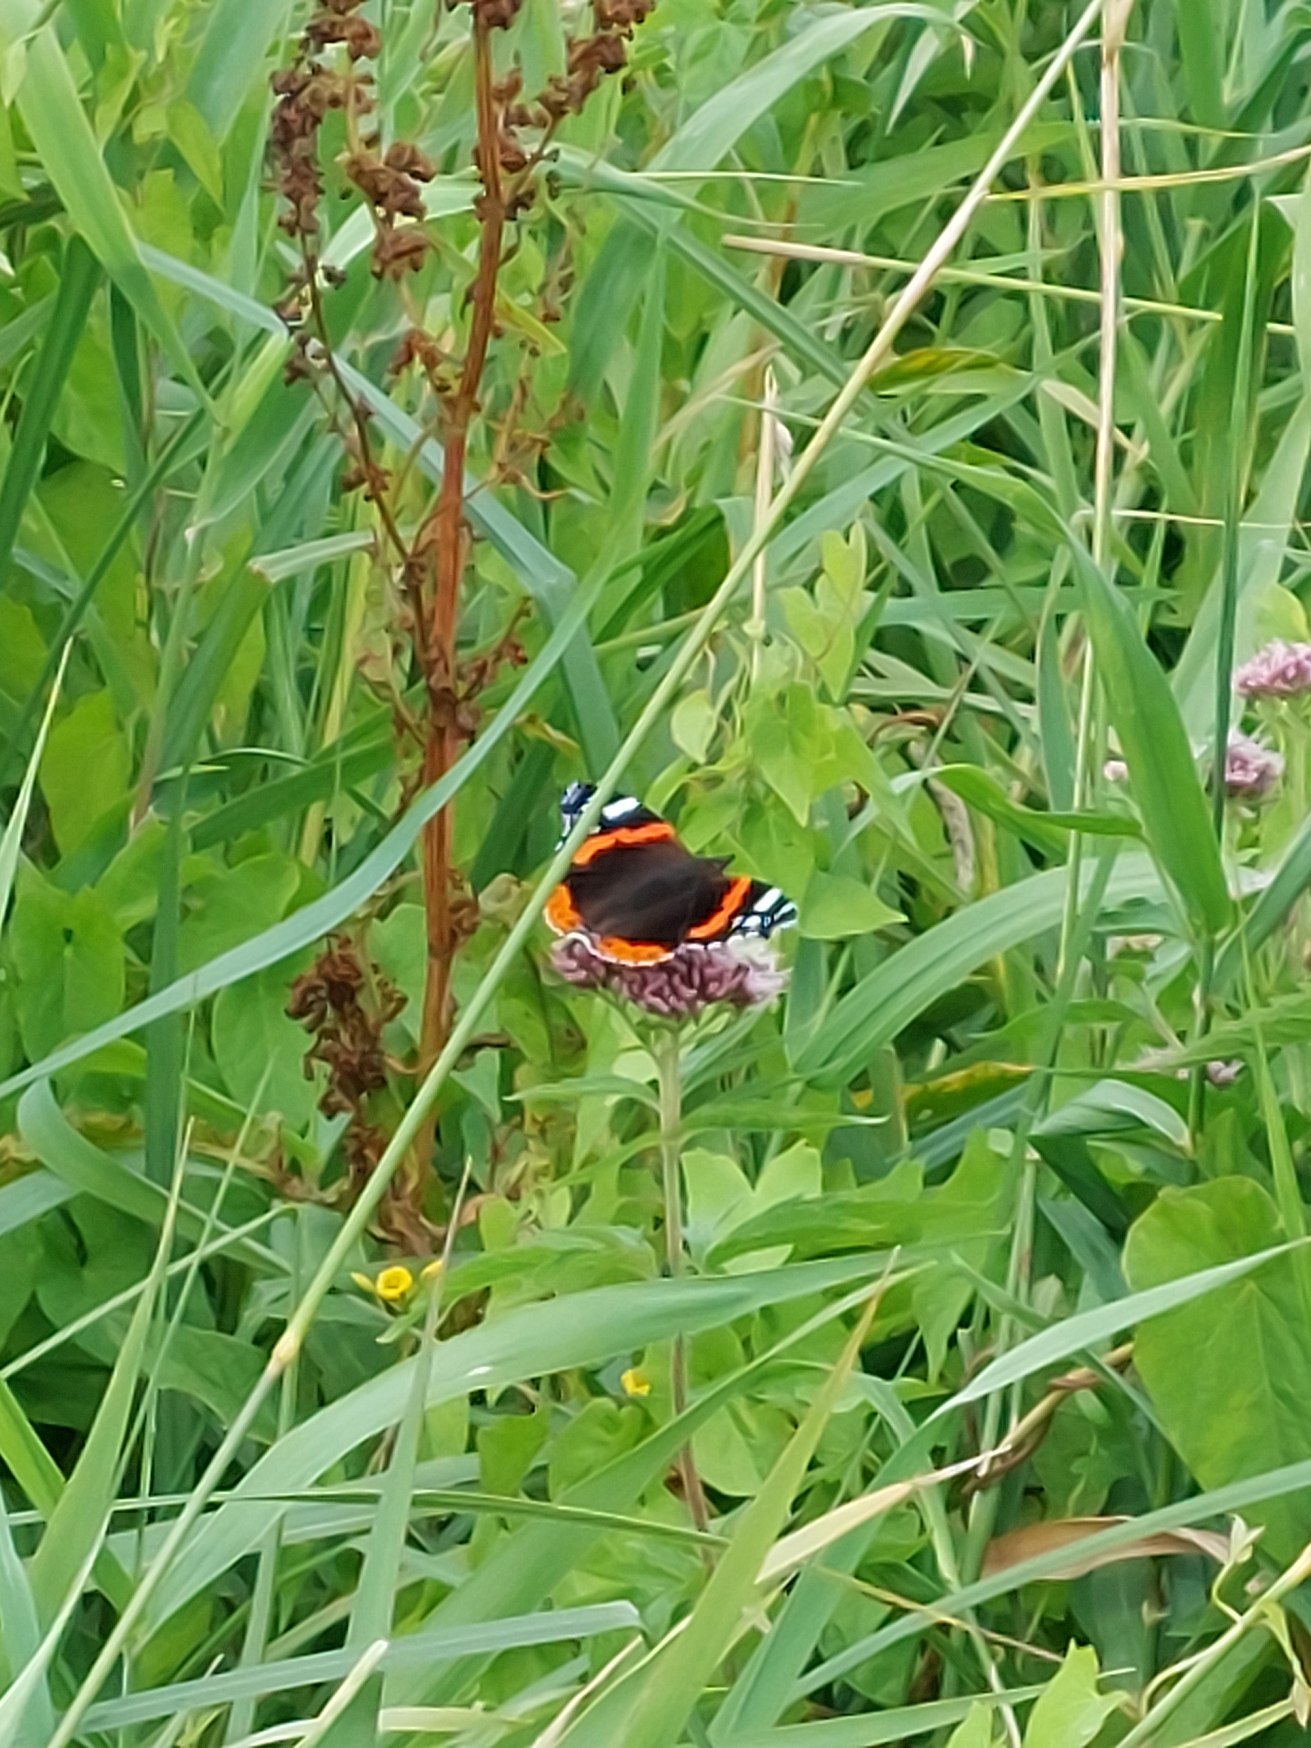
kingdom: Animalia
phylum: Arthropoda
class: Insecta
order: Lepidoptera
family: Nymphalidae
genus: Vanessa
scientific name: Vanessa atalanta
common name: Admiral
